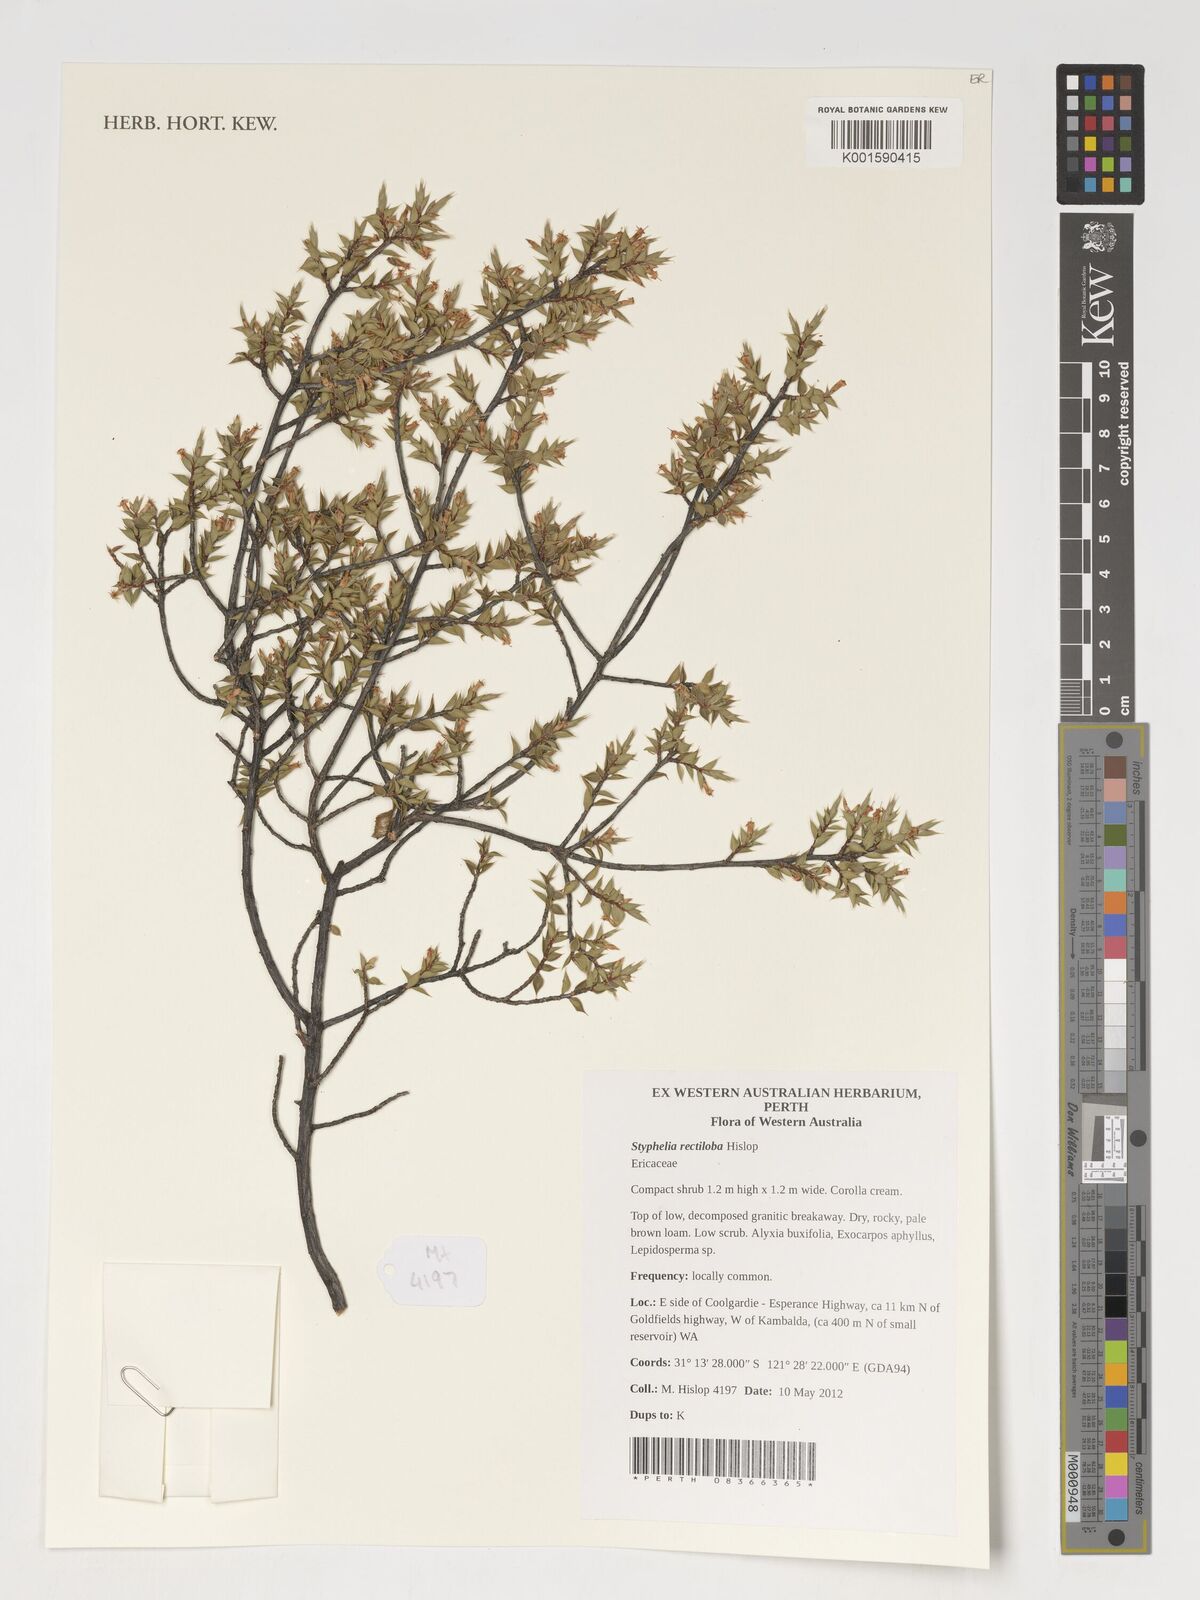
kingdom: Plantae
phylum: Tracheophyta
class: Magnoliopsida
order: Ericales
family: Ericaceae
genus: Styphelia
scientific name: Styphelia
